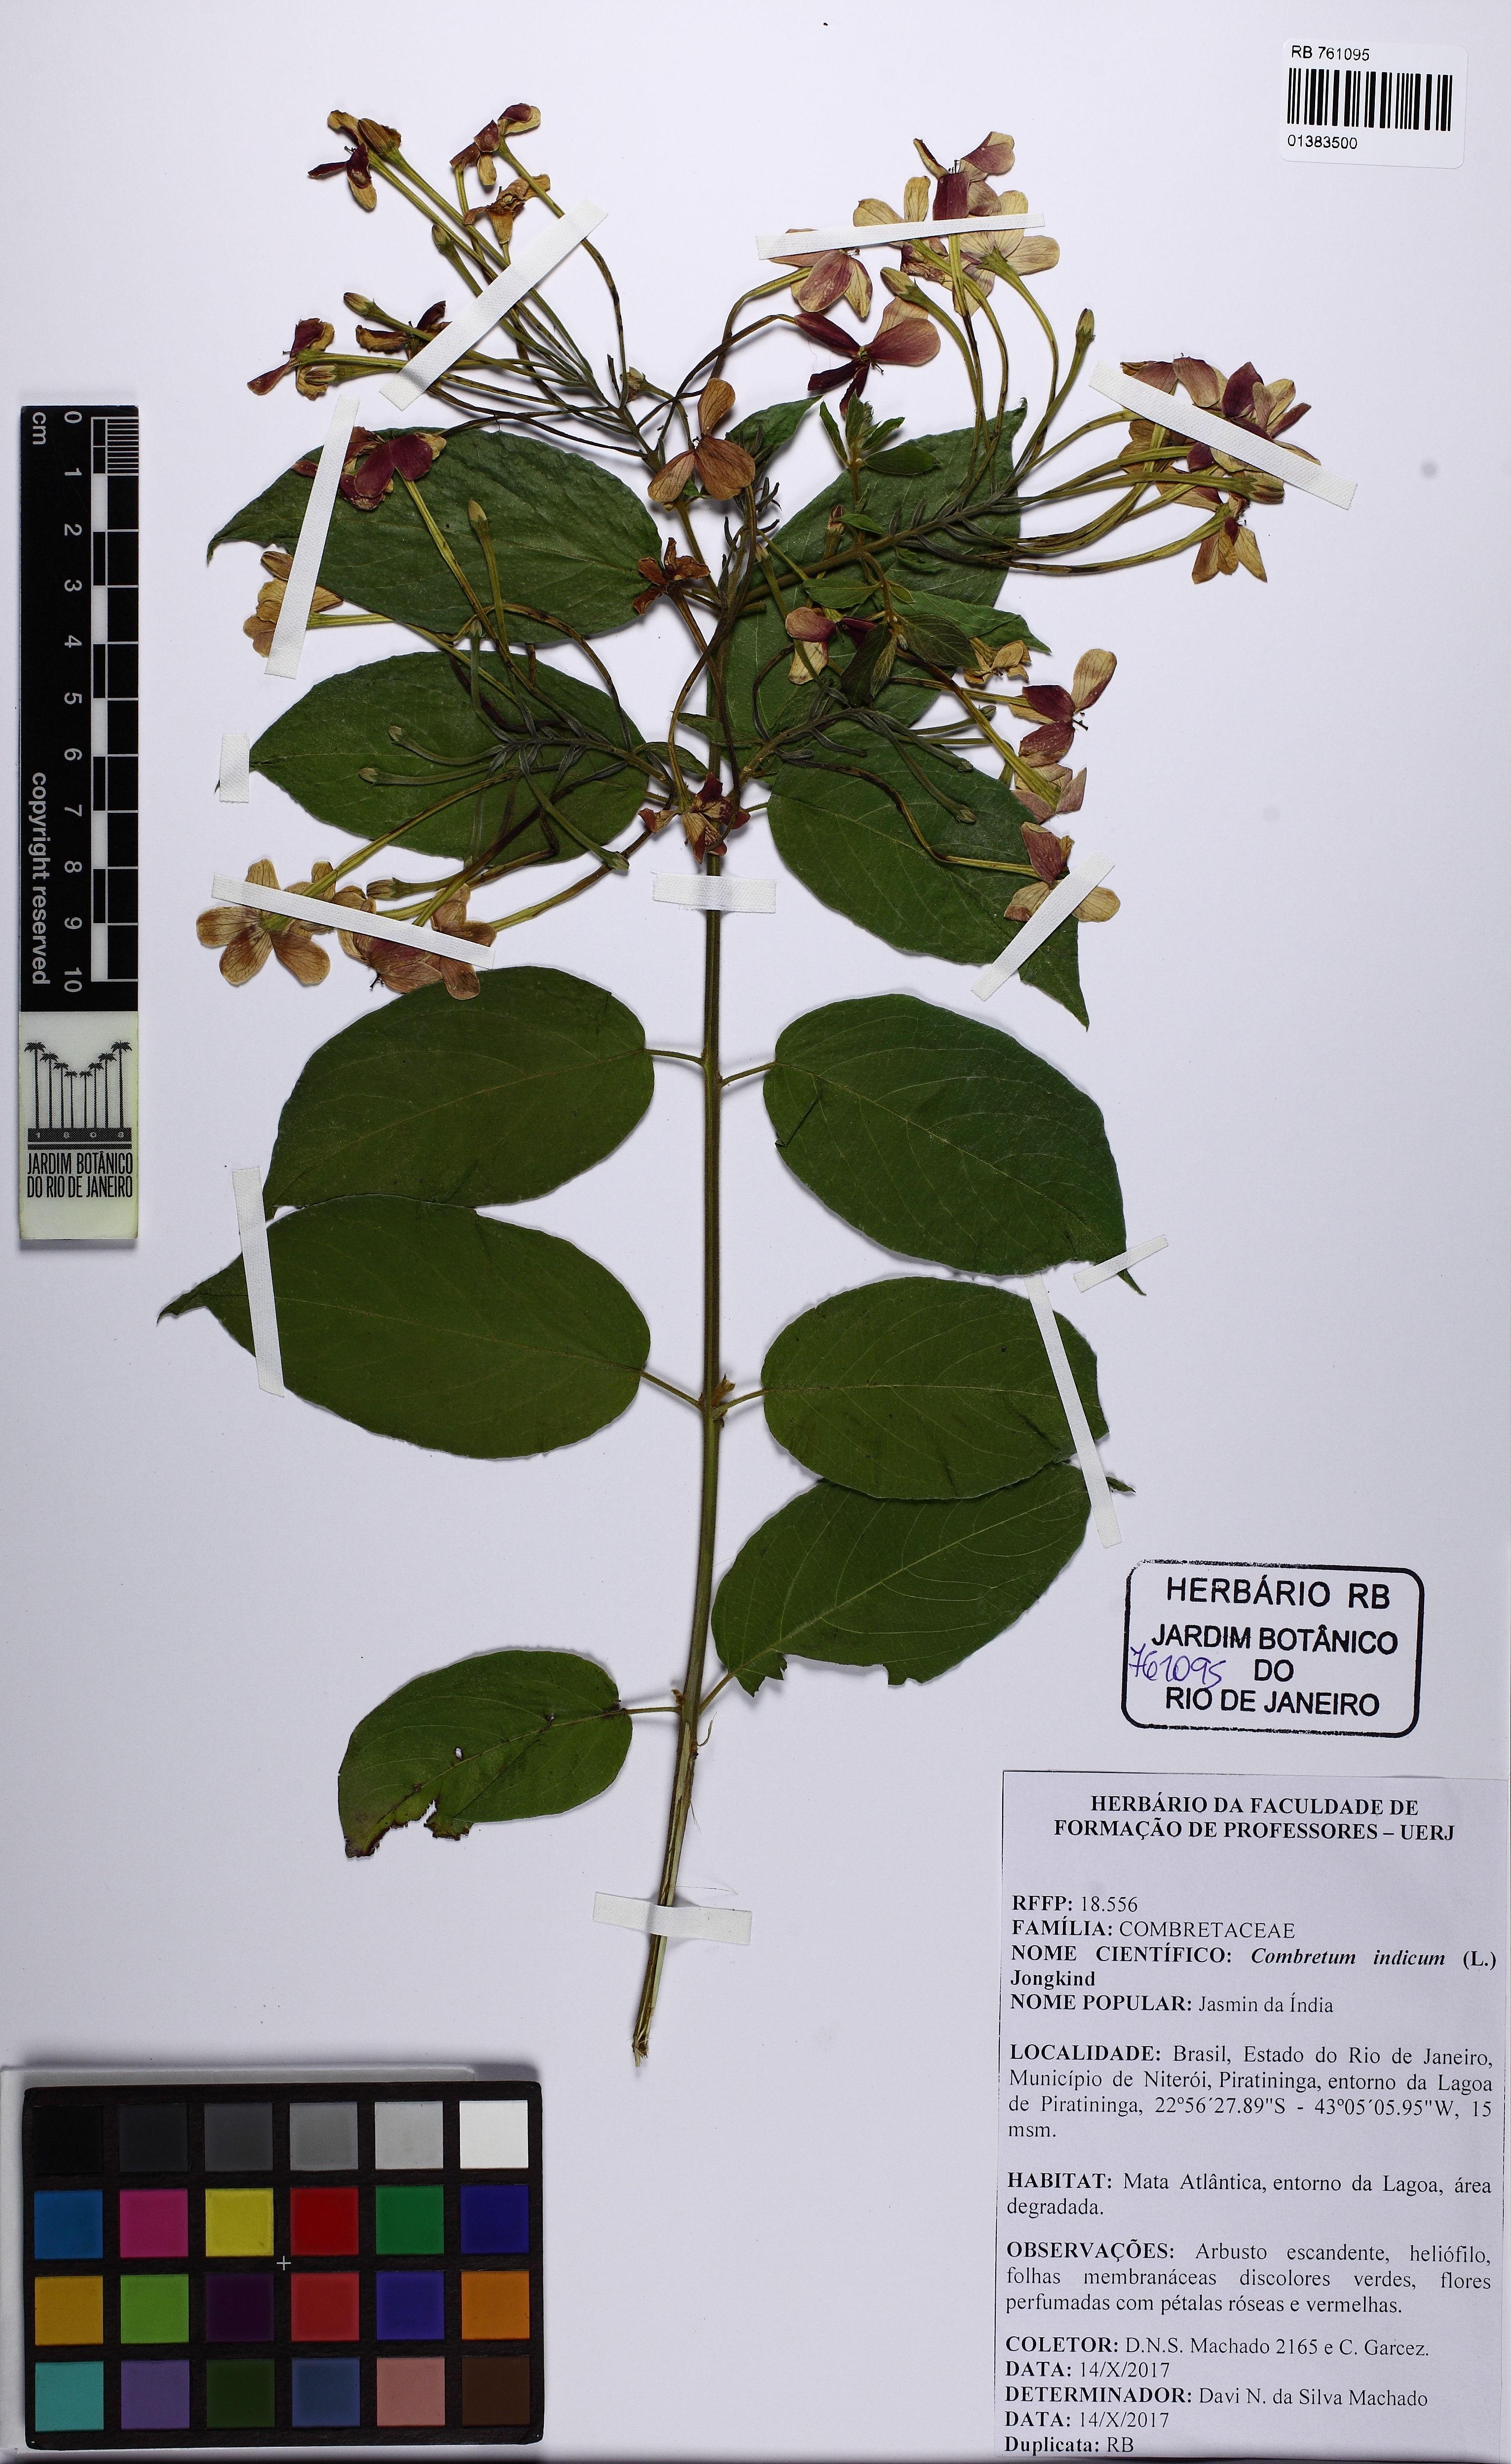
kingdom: Plantae
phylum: Tracheophyta
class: Magnoliopsida
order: Myrtales
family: Combretaceae
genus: Combretum
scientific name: Combretum indicum
